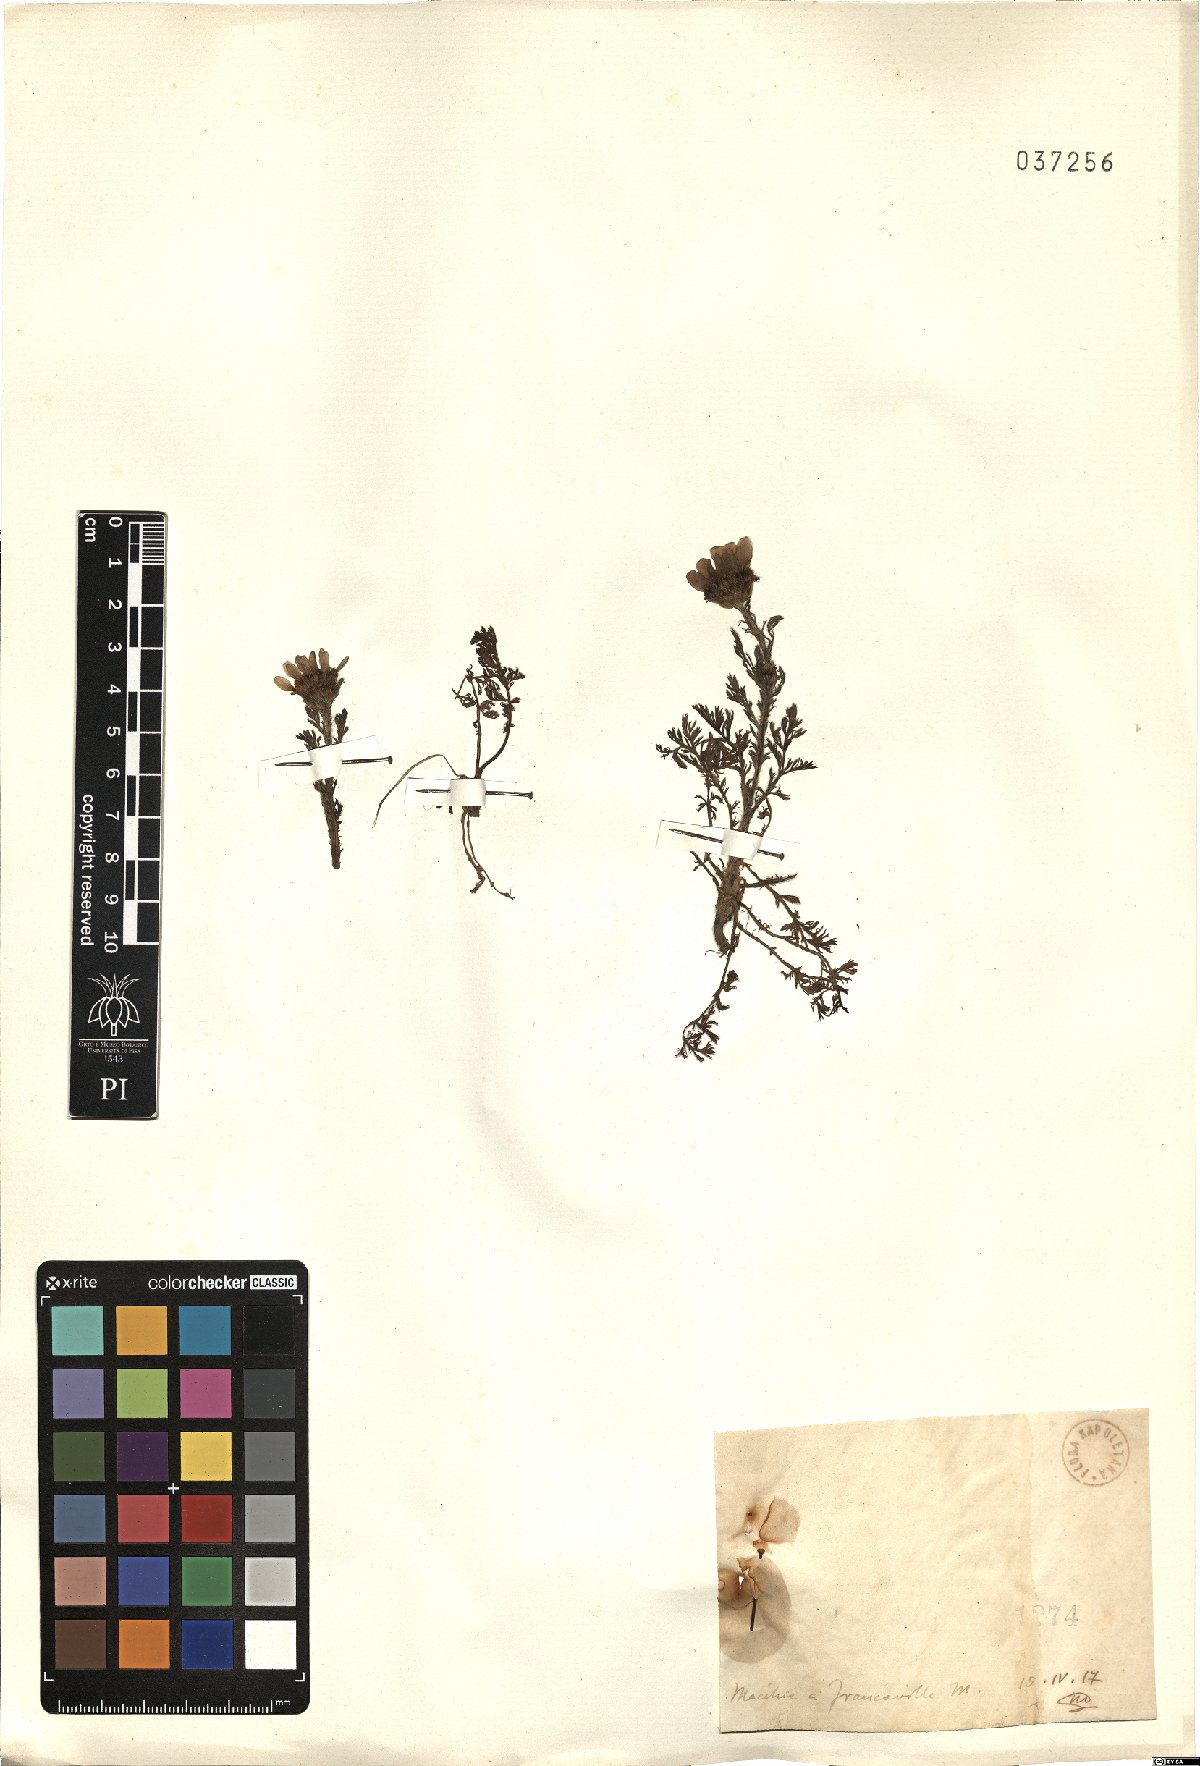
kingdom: Plantae
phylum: Tracheophyta
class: Magnoliopsida
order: Asterales
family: Asteraceae
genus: Anthemis
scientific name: Anthemis
